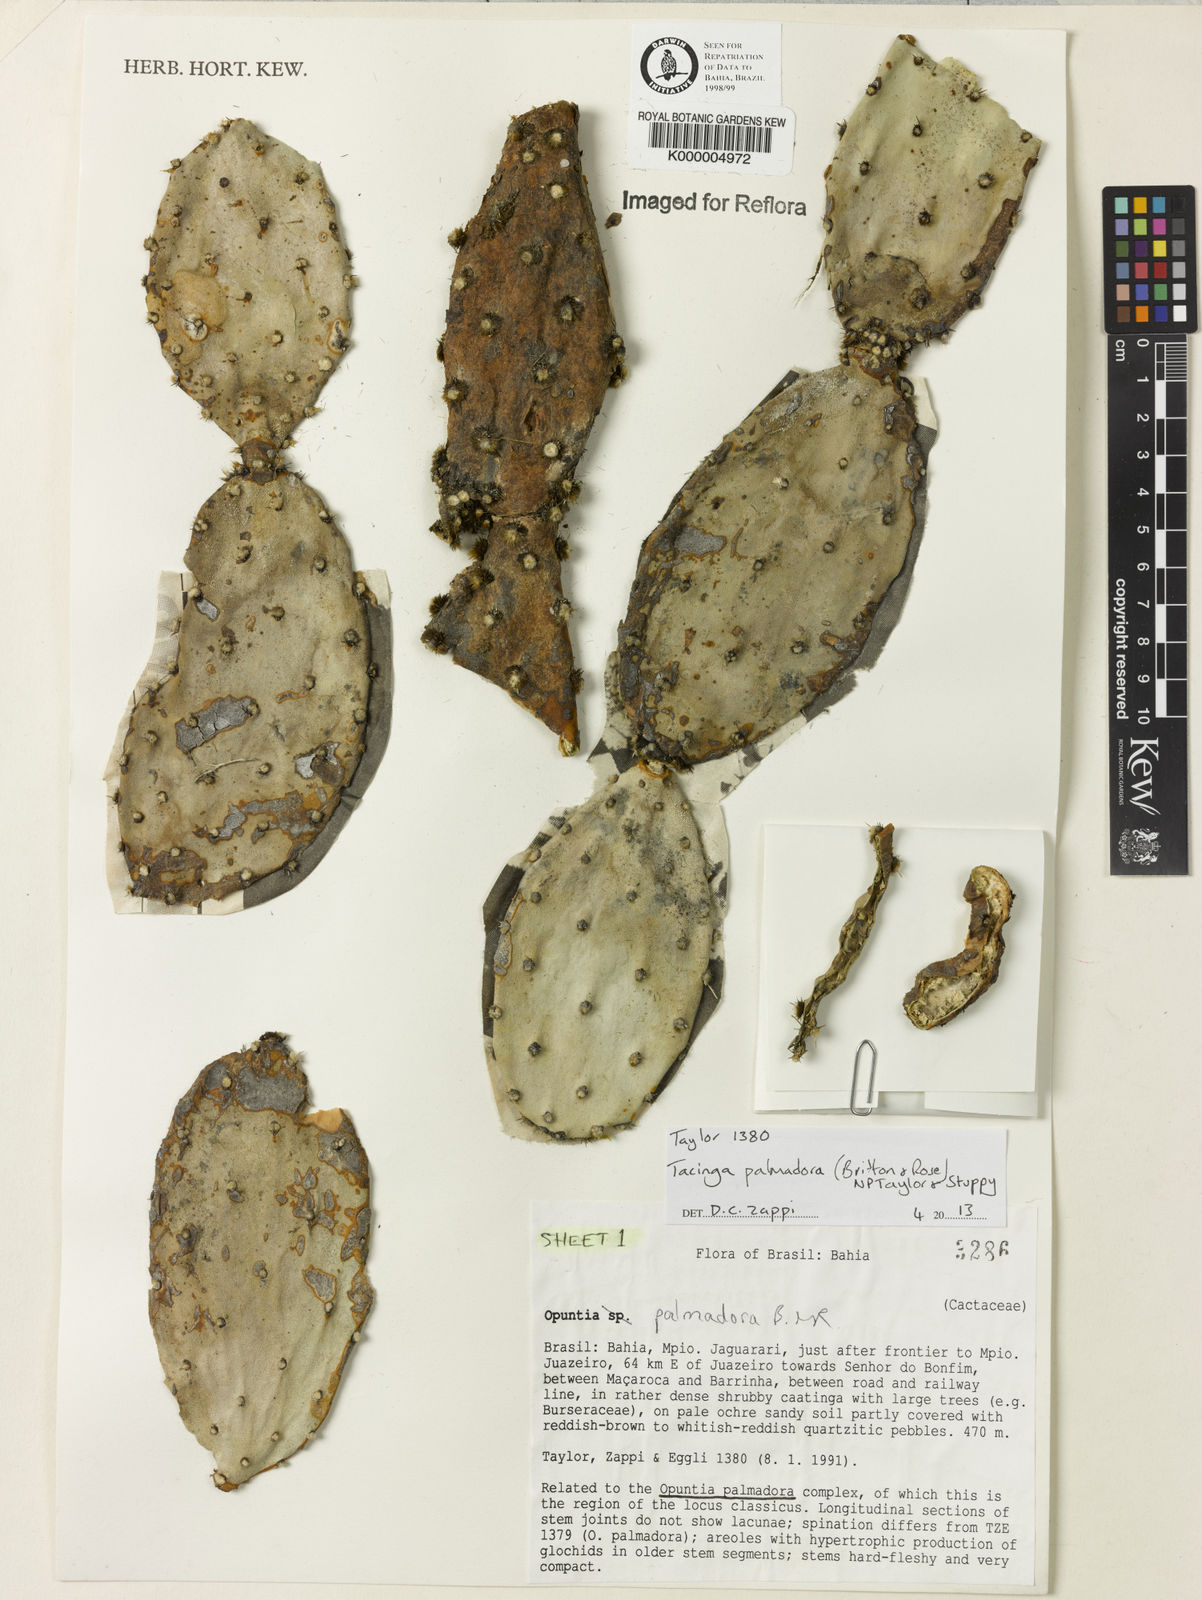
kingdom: Plantae
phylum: Tracheophyta
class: Magnoliopsida
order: Caryophyllales
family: Cactaceae
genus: Tacinga
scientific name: Tacinga palmadora
